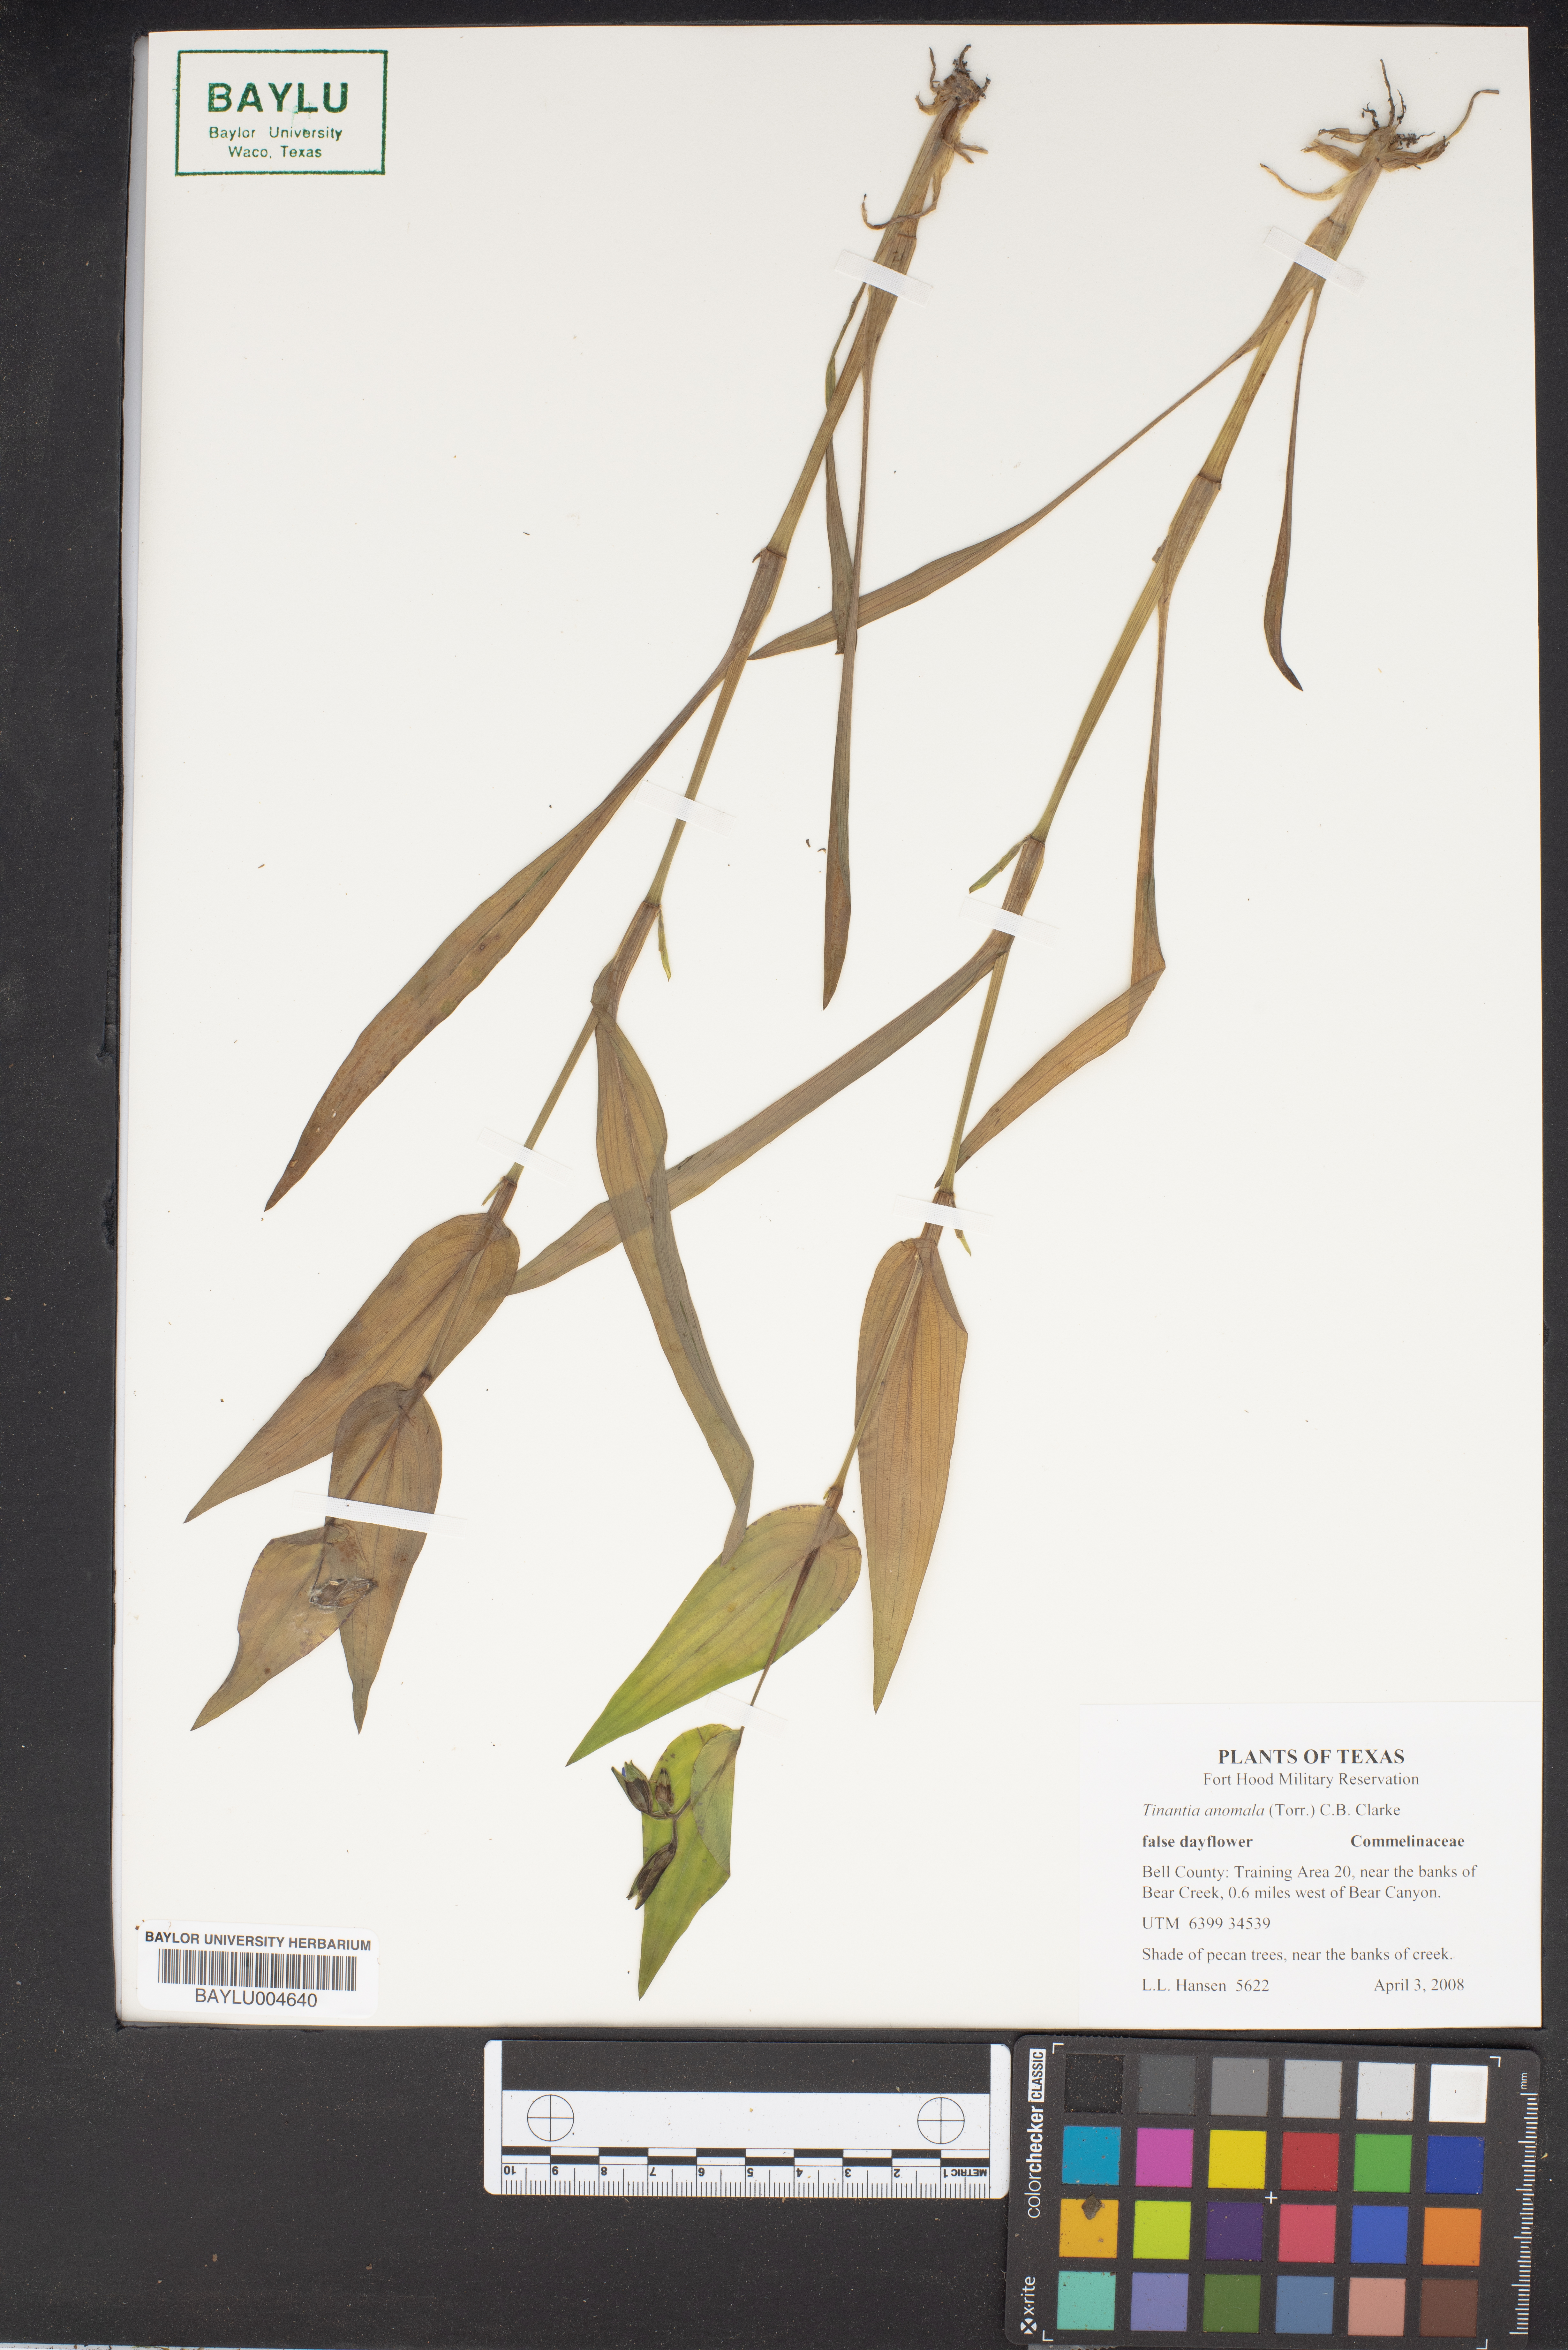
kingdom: Plantae
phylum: Tracheophyta
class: Liliopsida
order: Commelinales
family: Commelinaceae
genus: Tinantia
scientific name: Tinantia anomala
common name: False dayflower
